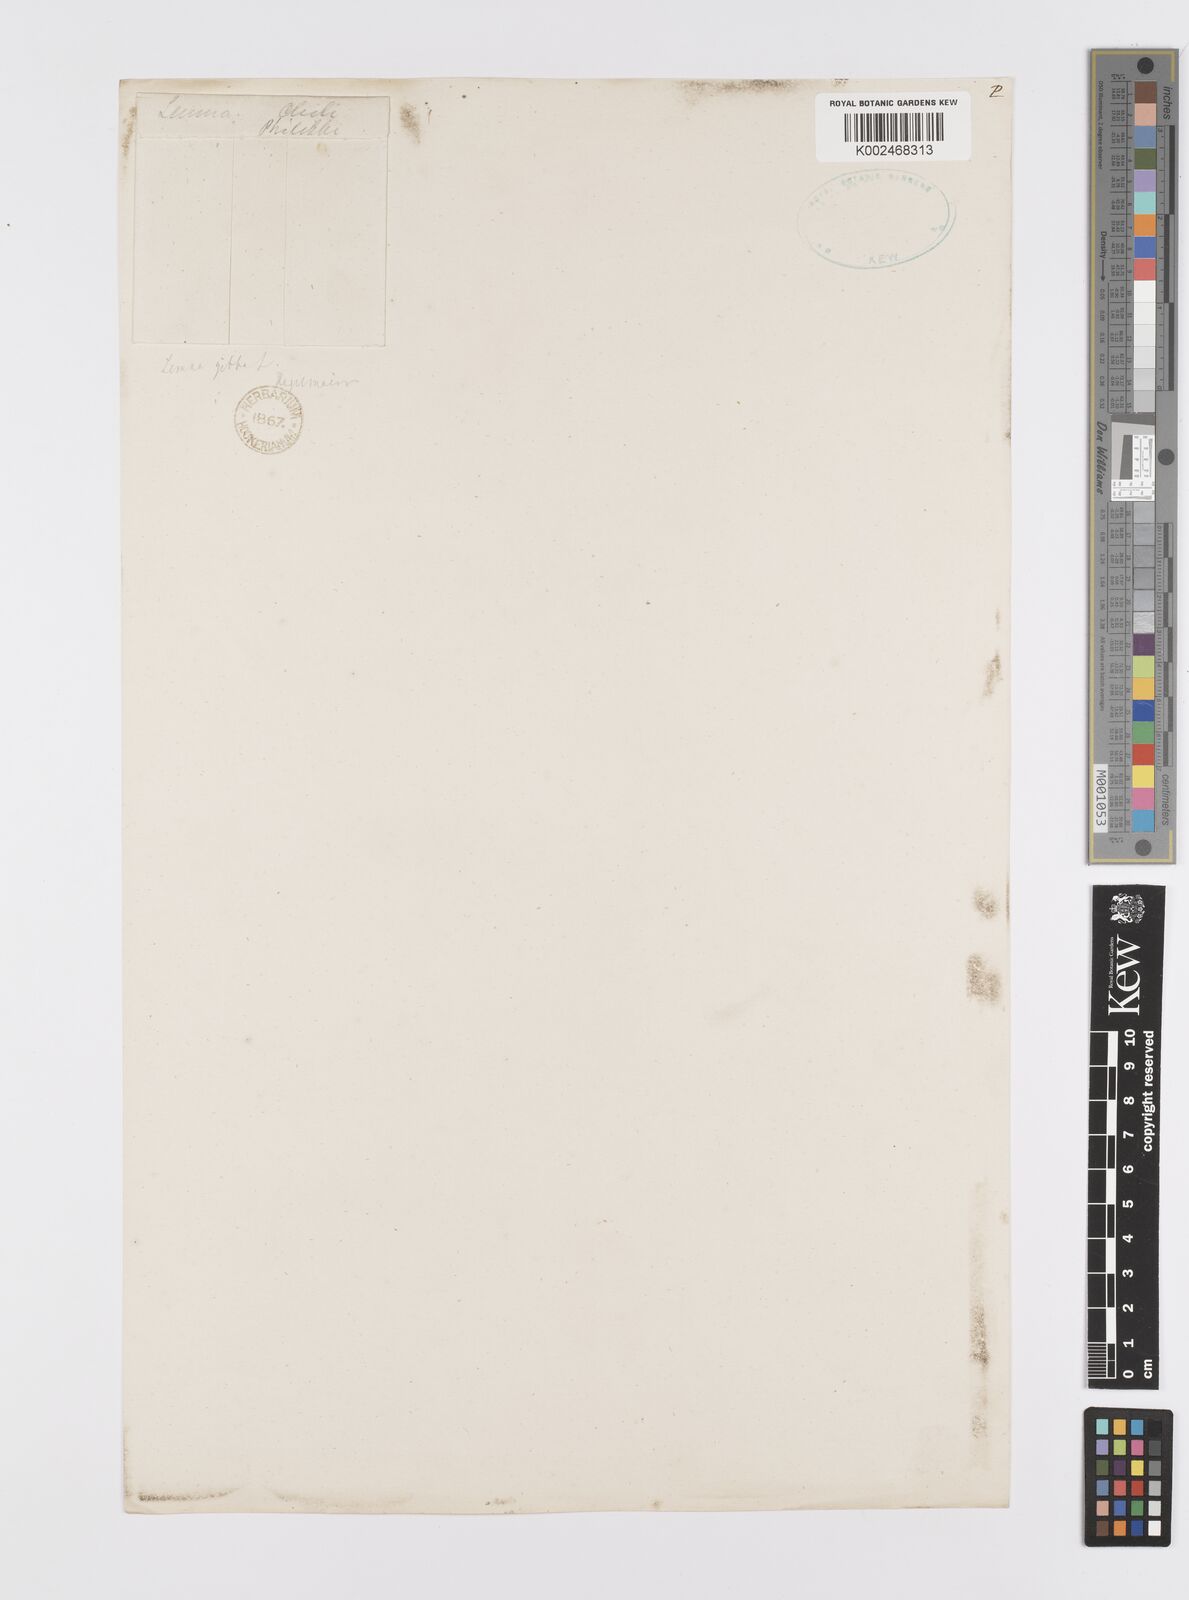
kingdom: Plantae
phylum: Tracheophyta
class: Liliopsida
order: Alismatales
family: Araceae
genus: Lemna
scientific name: Lemna gibba
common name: Fat duckweed
